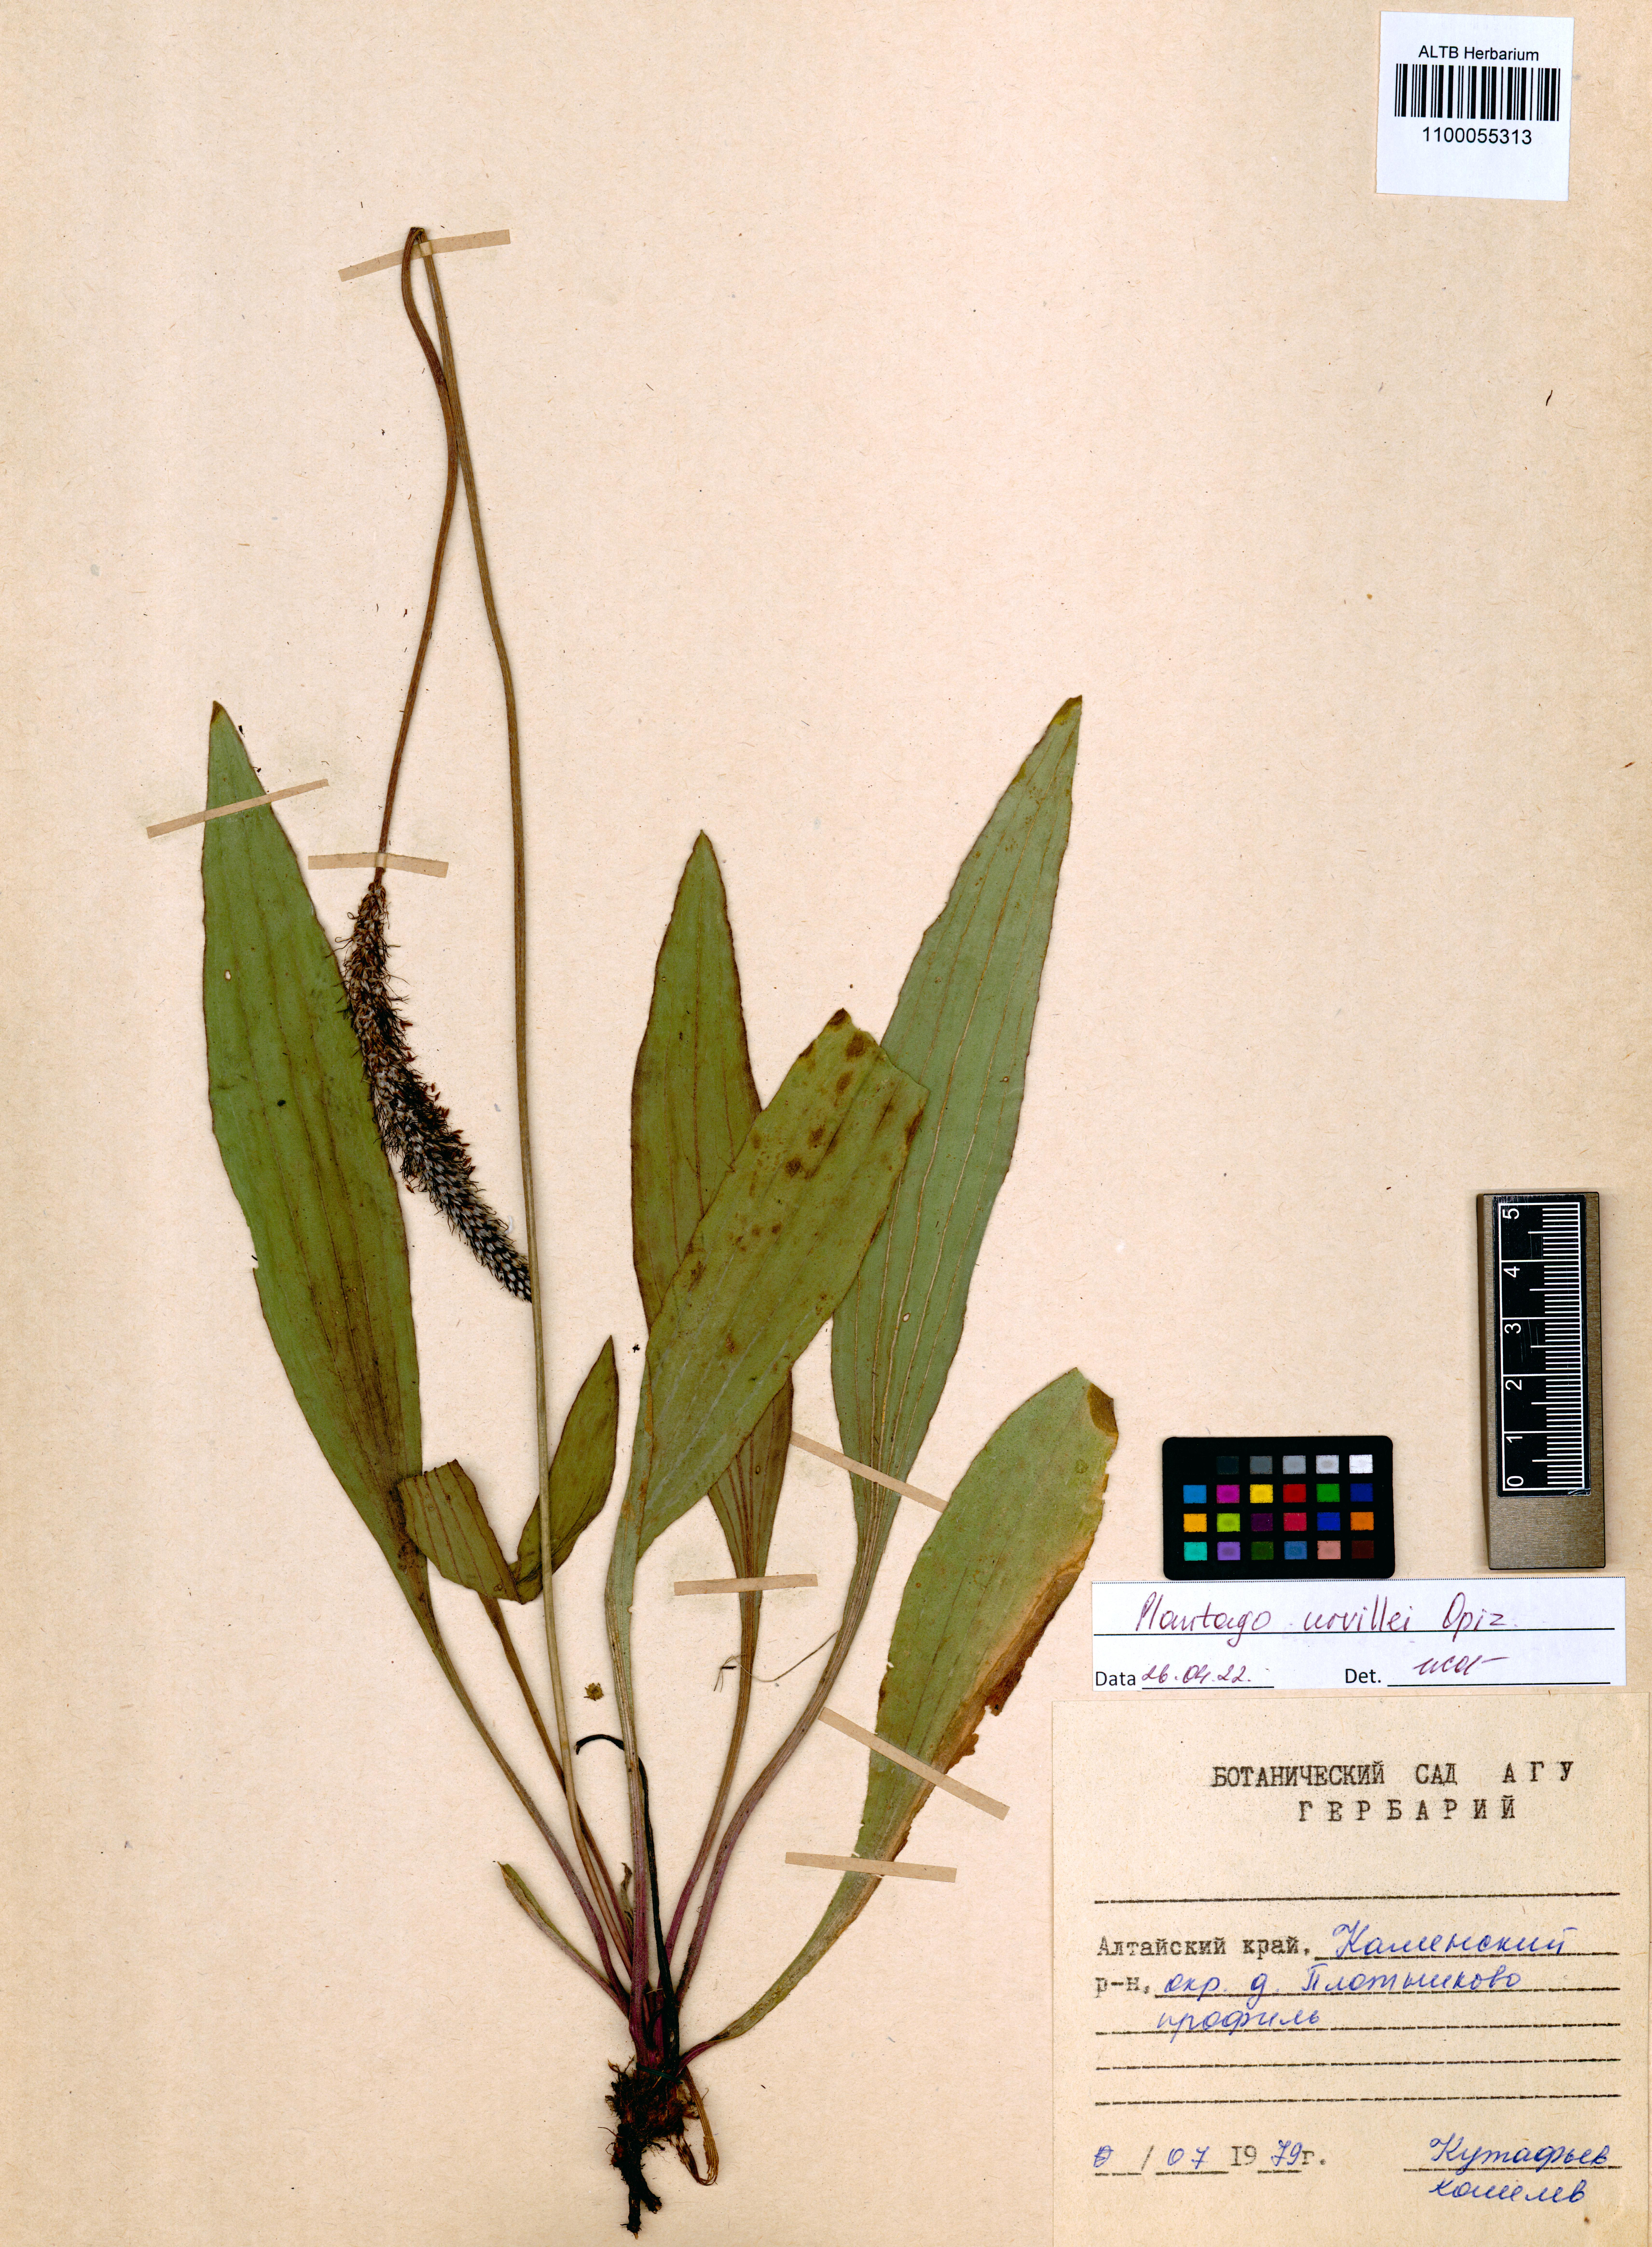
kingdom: Plantae
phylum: Tracheophyta
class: Magnoliopsida
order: Lamiales
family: Plantaginaceae
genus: Plantago
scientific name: Plantago urvillei
